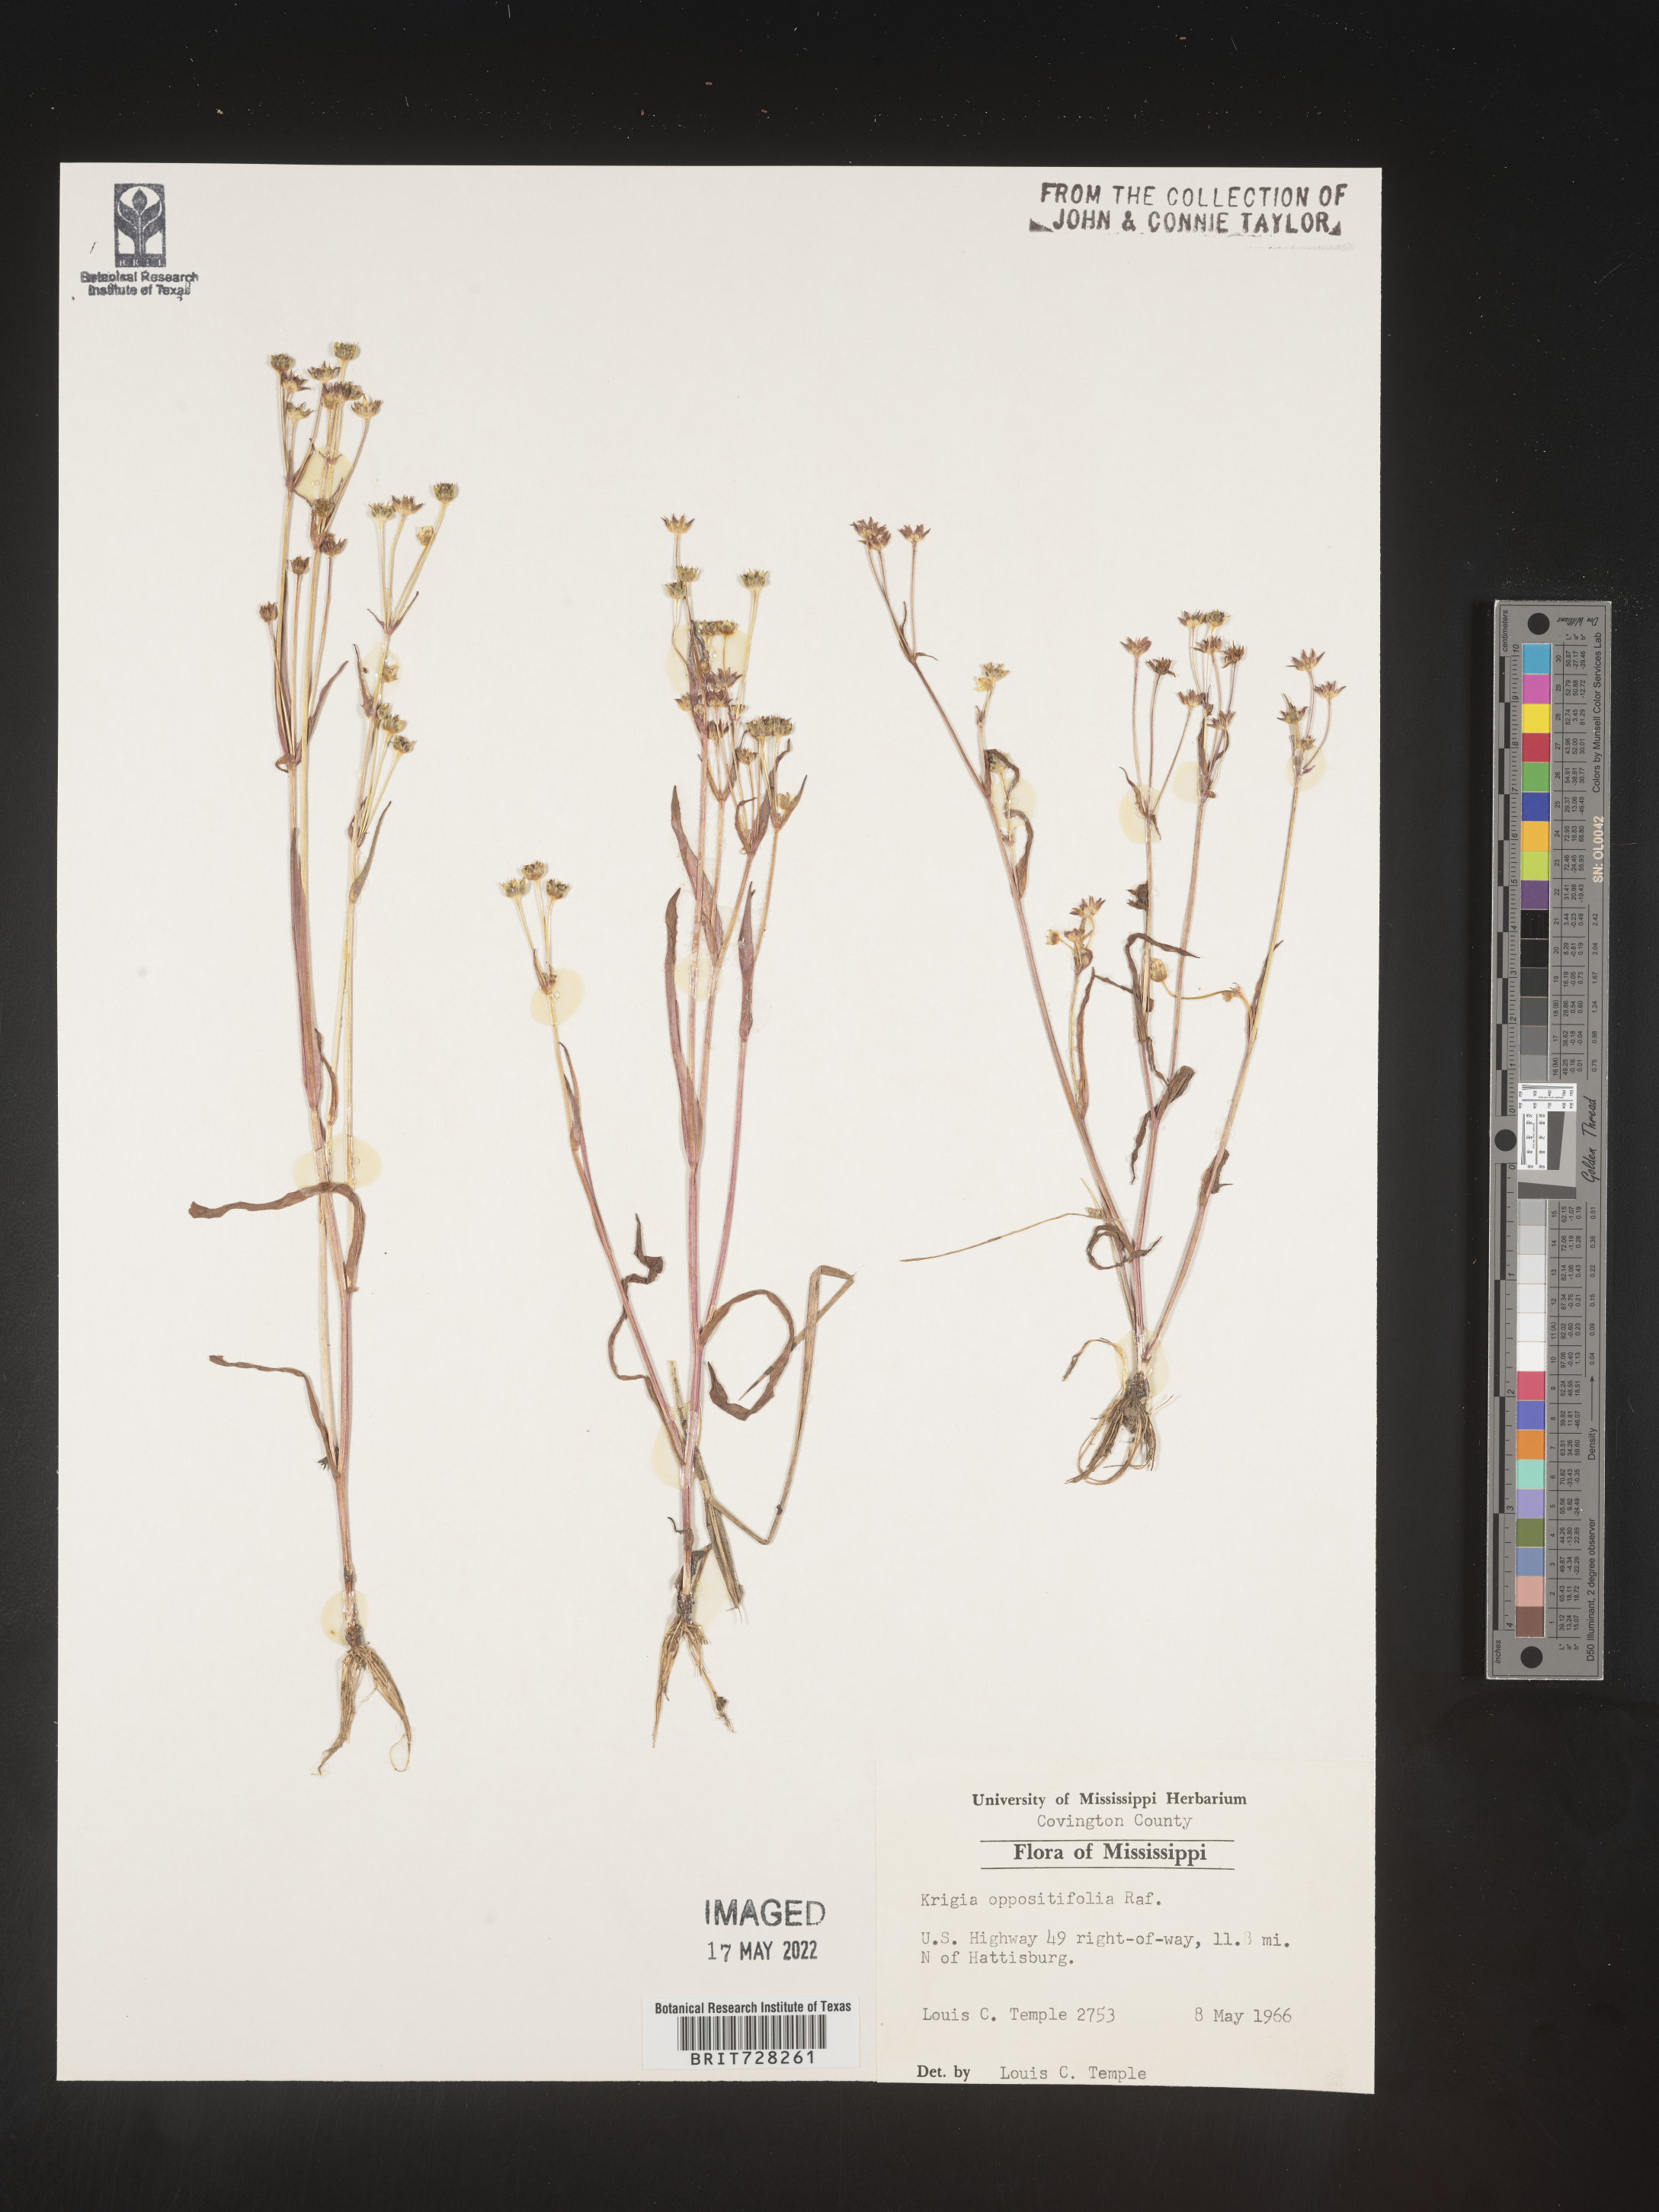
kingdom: Plantae
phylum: Tracheophyta
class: Magnoliopsida
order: Asterales
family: Asteraceae
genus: Krigia
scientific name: Krigia caespitosa
